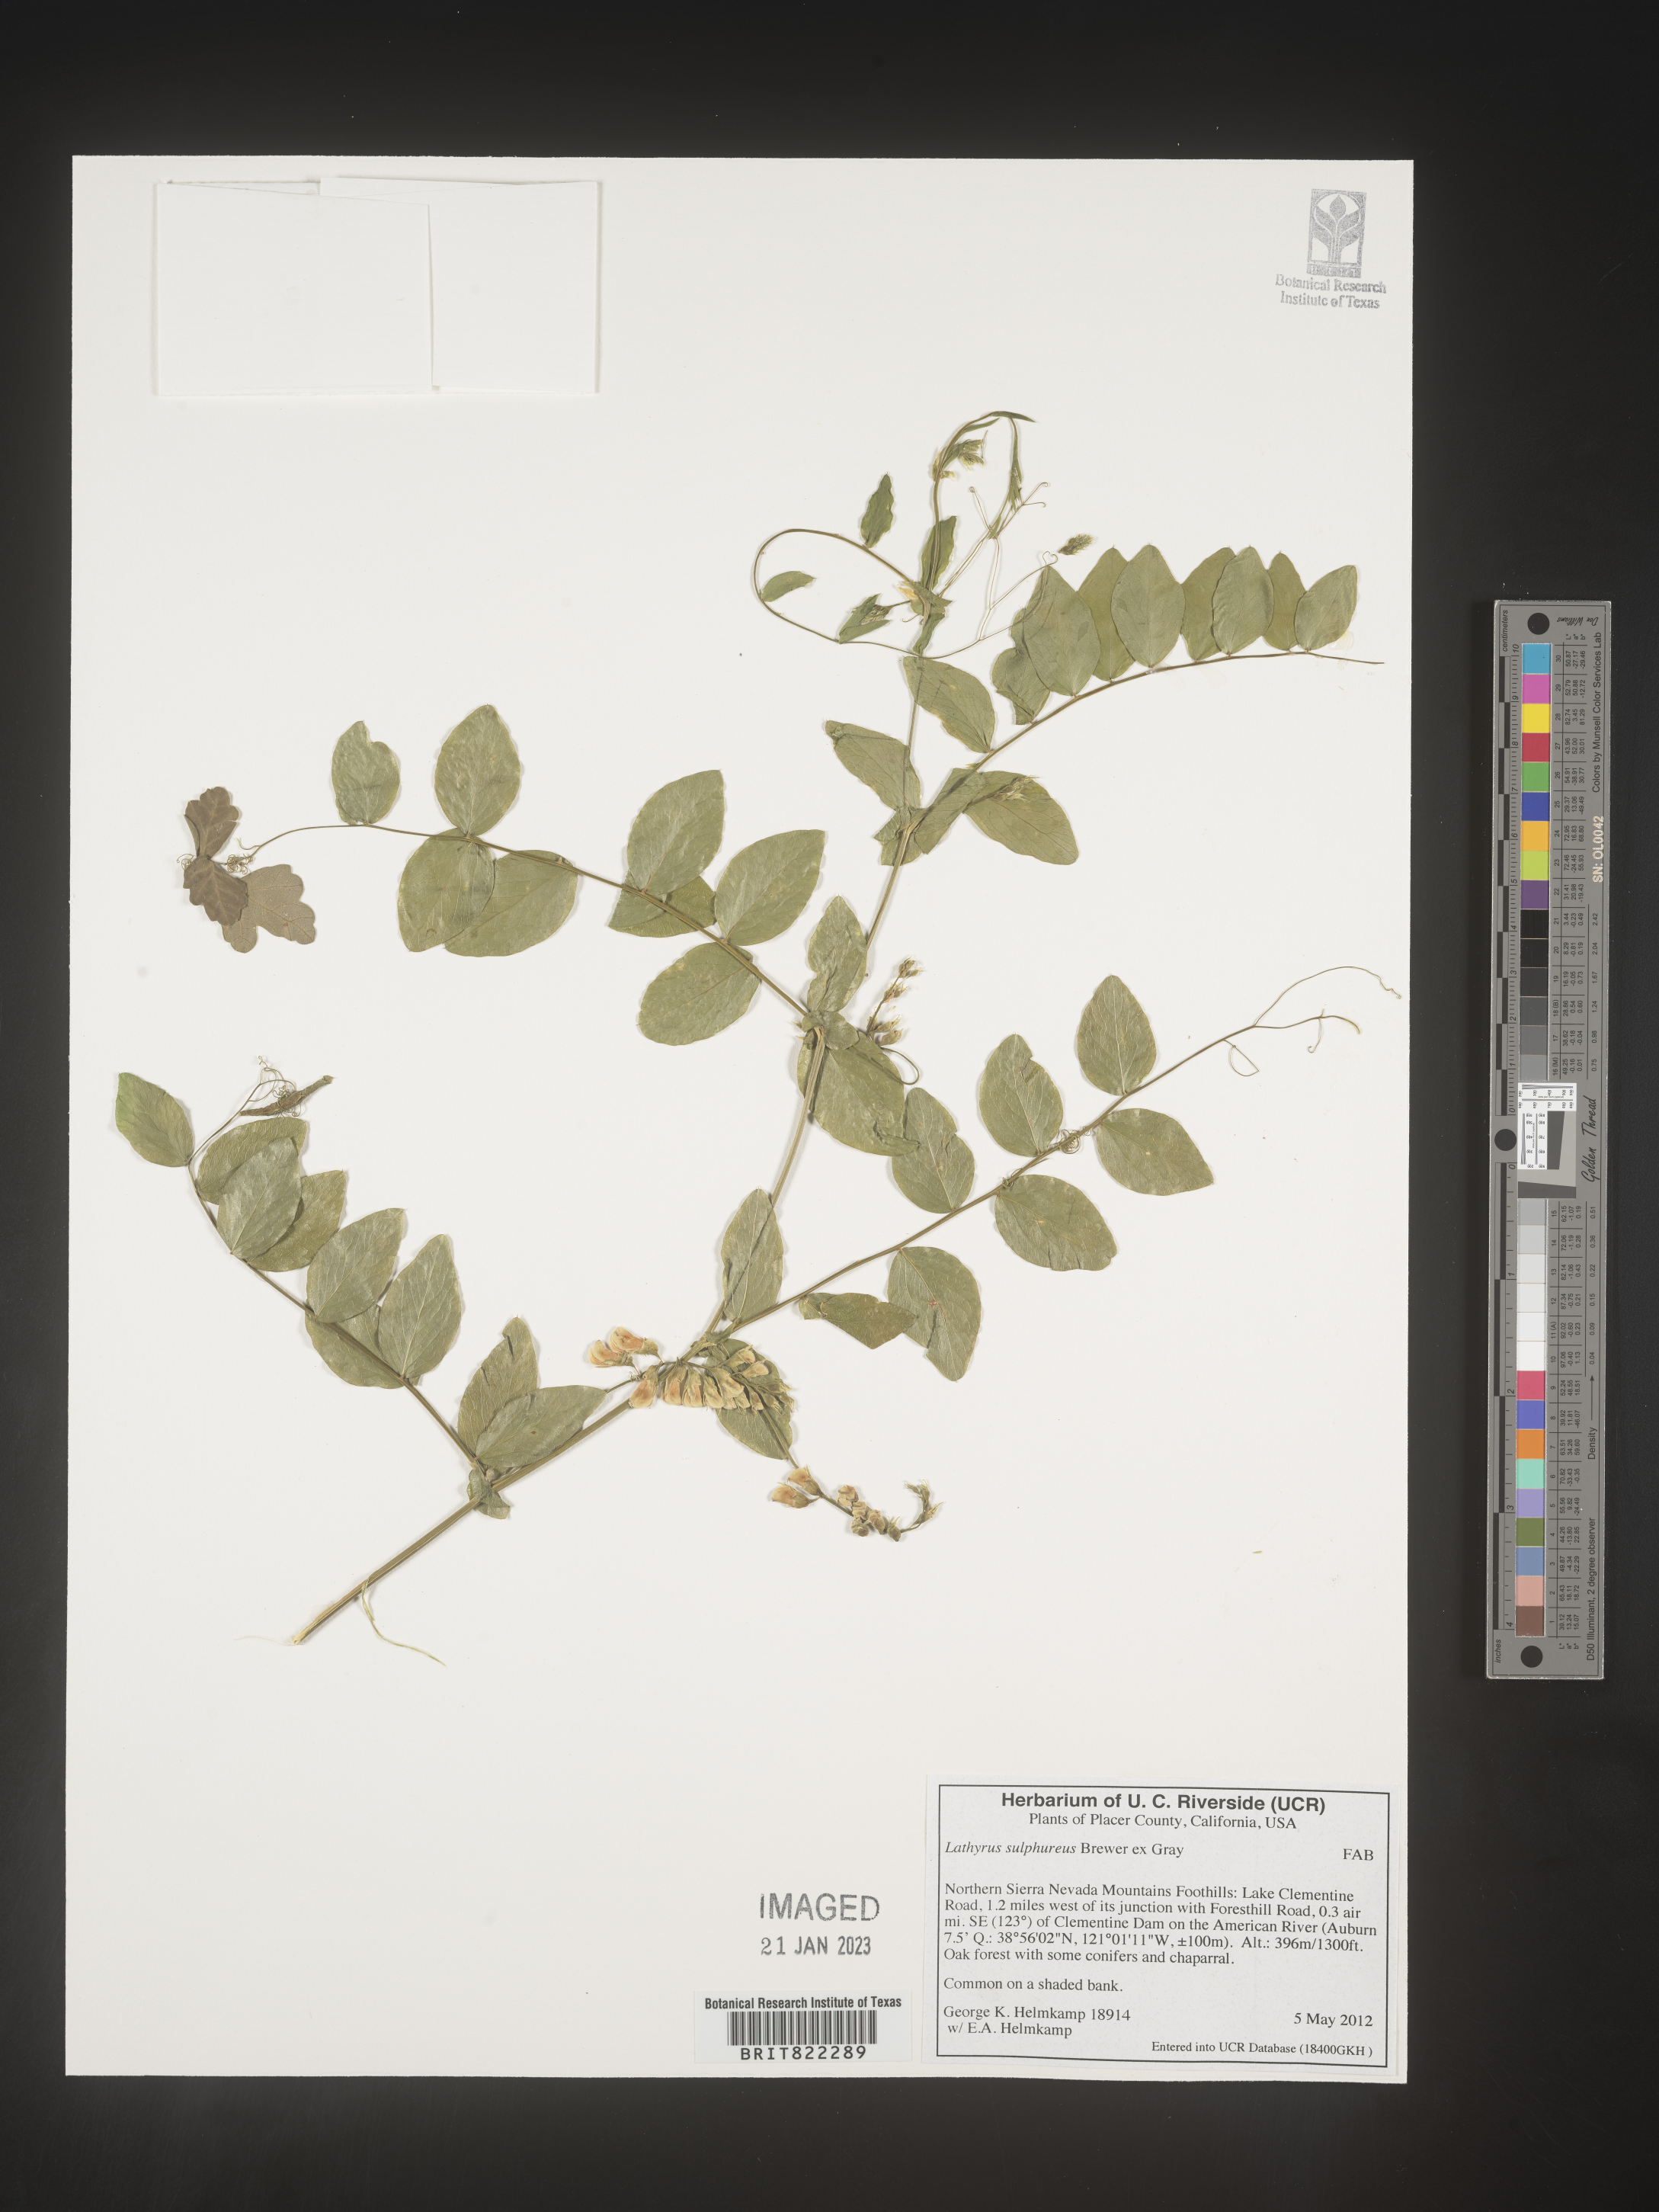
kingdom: Plantae
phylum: Tracheophyta
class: Magnoliopsida
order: Fabales
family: Fabaceae
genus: Lathyrus
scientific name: Lathyrus
